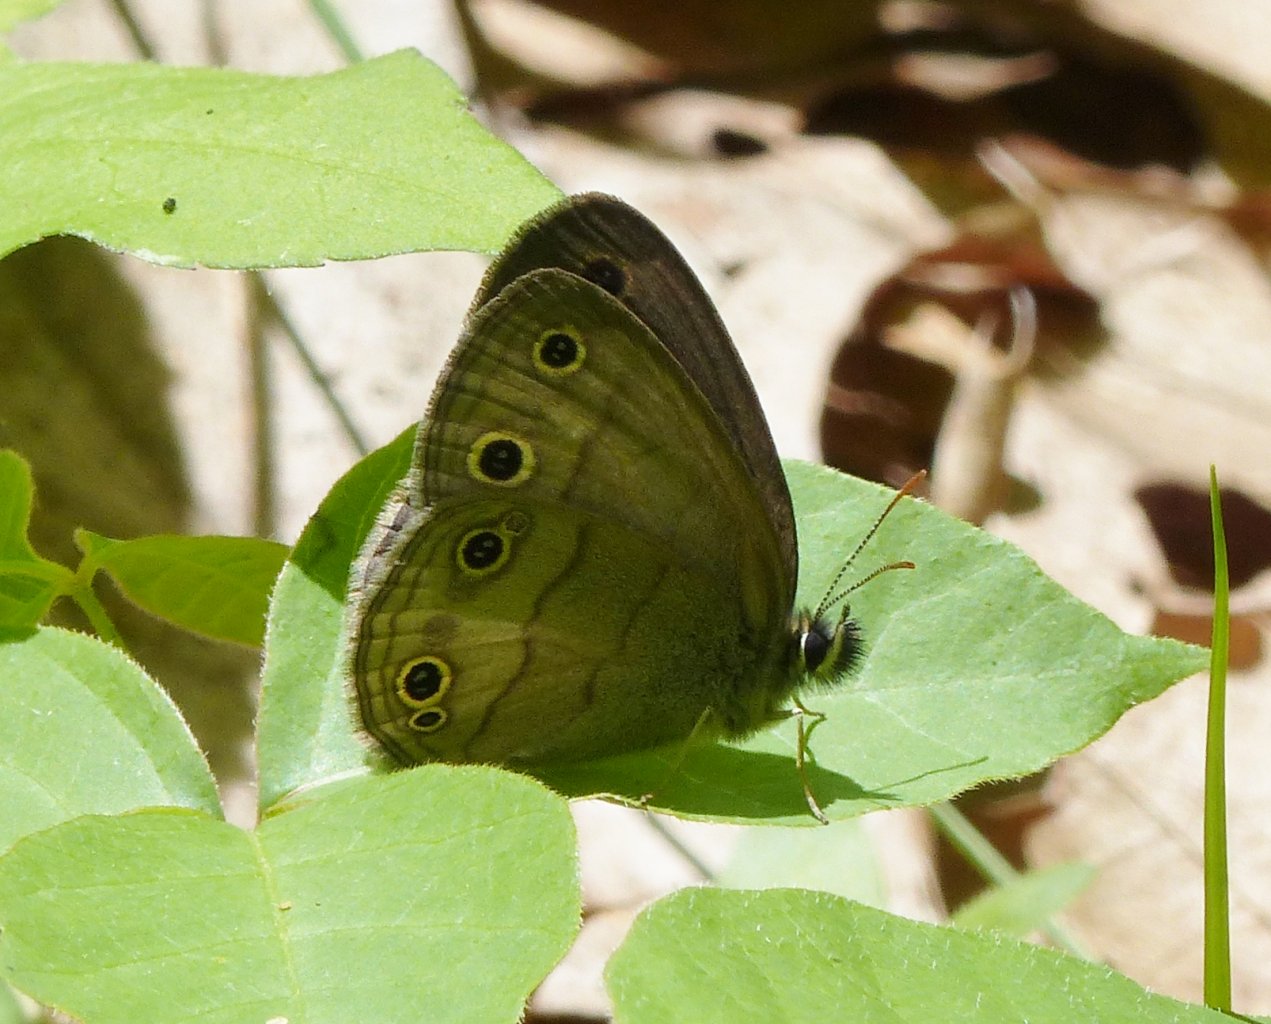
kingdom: Animalia
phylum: Arthropoda
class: Insecta
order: Lepidoptera
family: Nymphalidae
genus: Euptychia
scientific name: Euptychia cymela
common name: Little Wood Satyr
